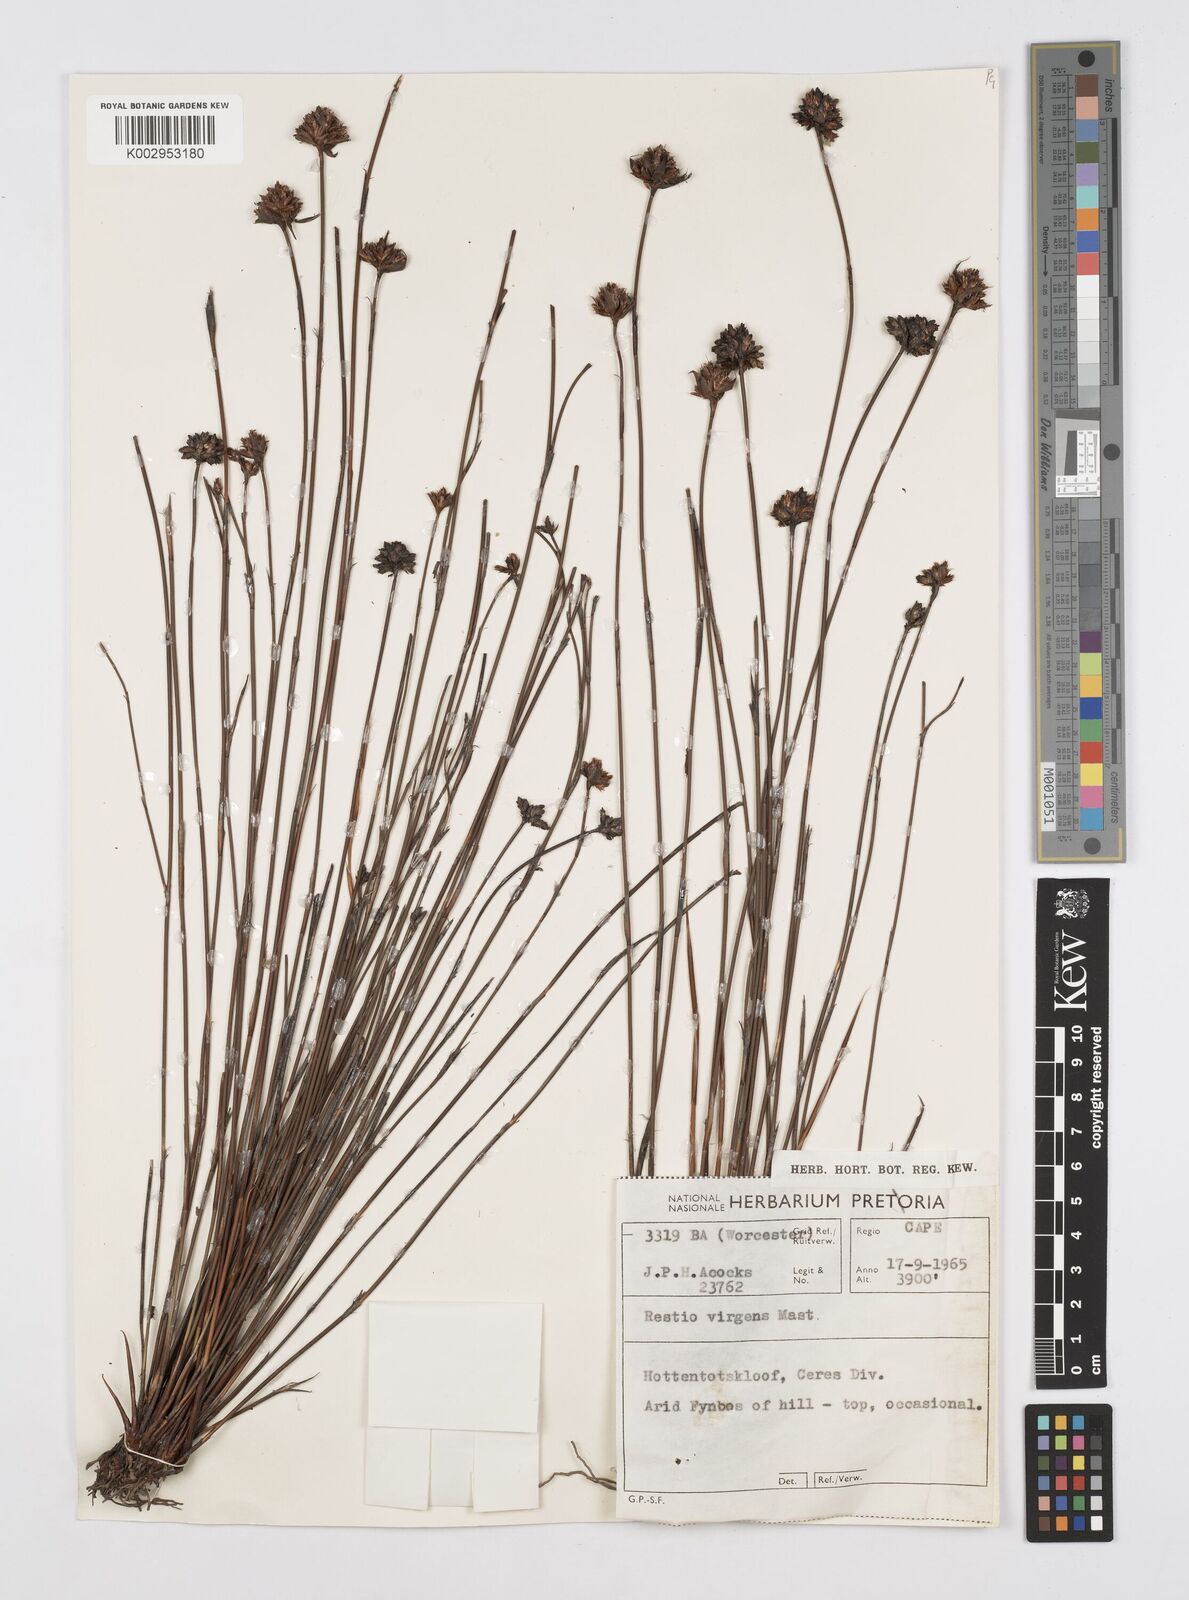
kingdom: Plantae
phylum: Tracheophyta
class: Liliopsida
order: Poales
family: Restionaceae
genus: Restio
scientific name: Restio virgeus
